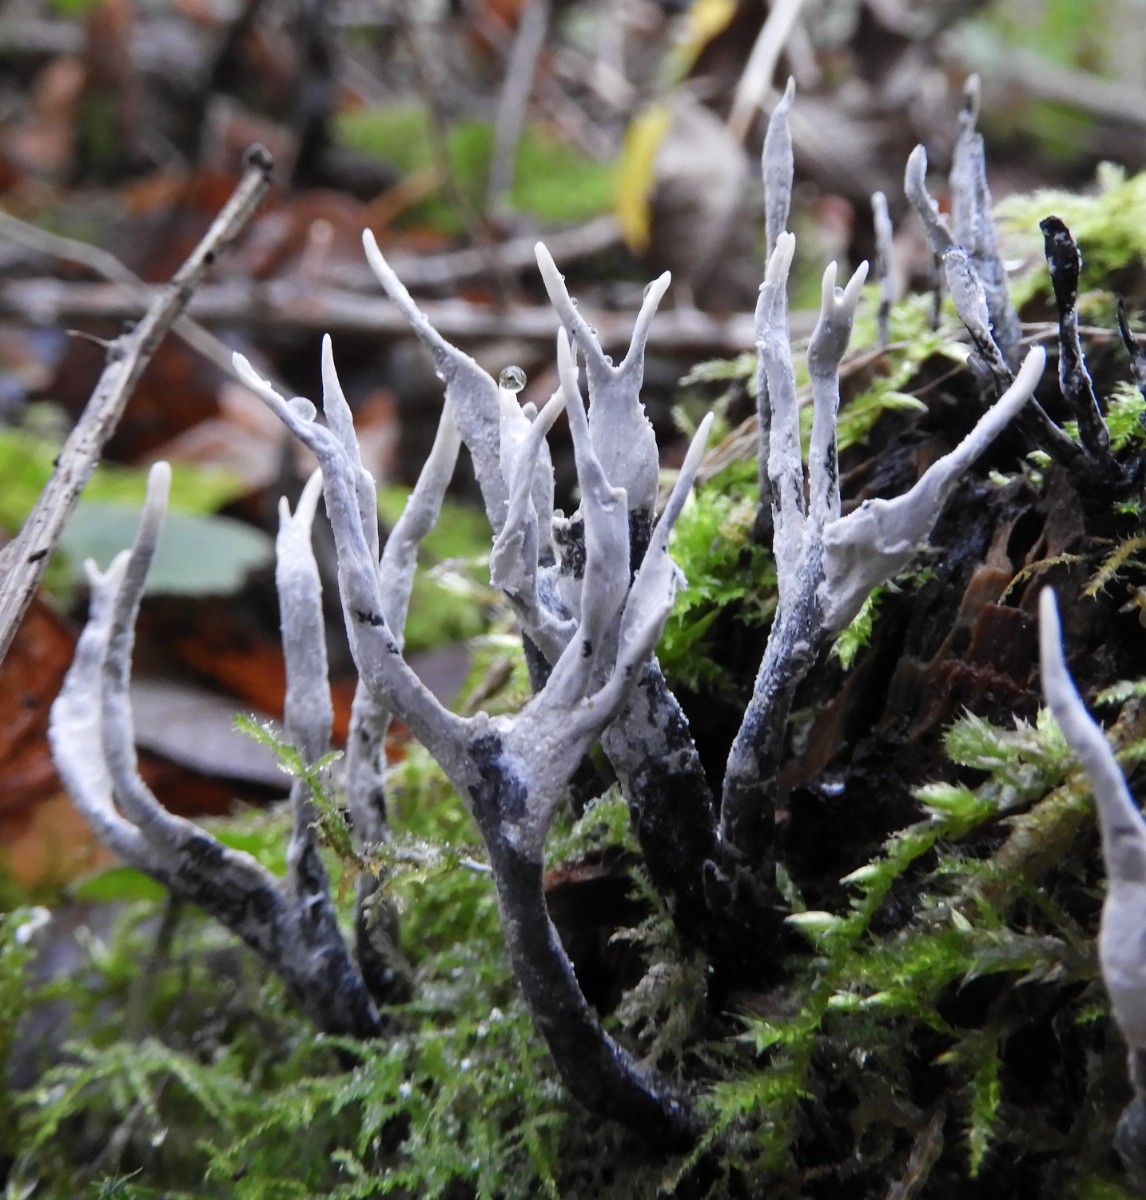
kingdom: Fungi
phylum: Ascomycota
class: Sordariomycetes
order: Xylariales
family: Xylariaceae
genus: Xylaria
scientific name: Xylaria hypoxylon
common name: grenet stødsvamp
